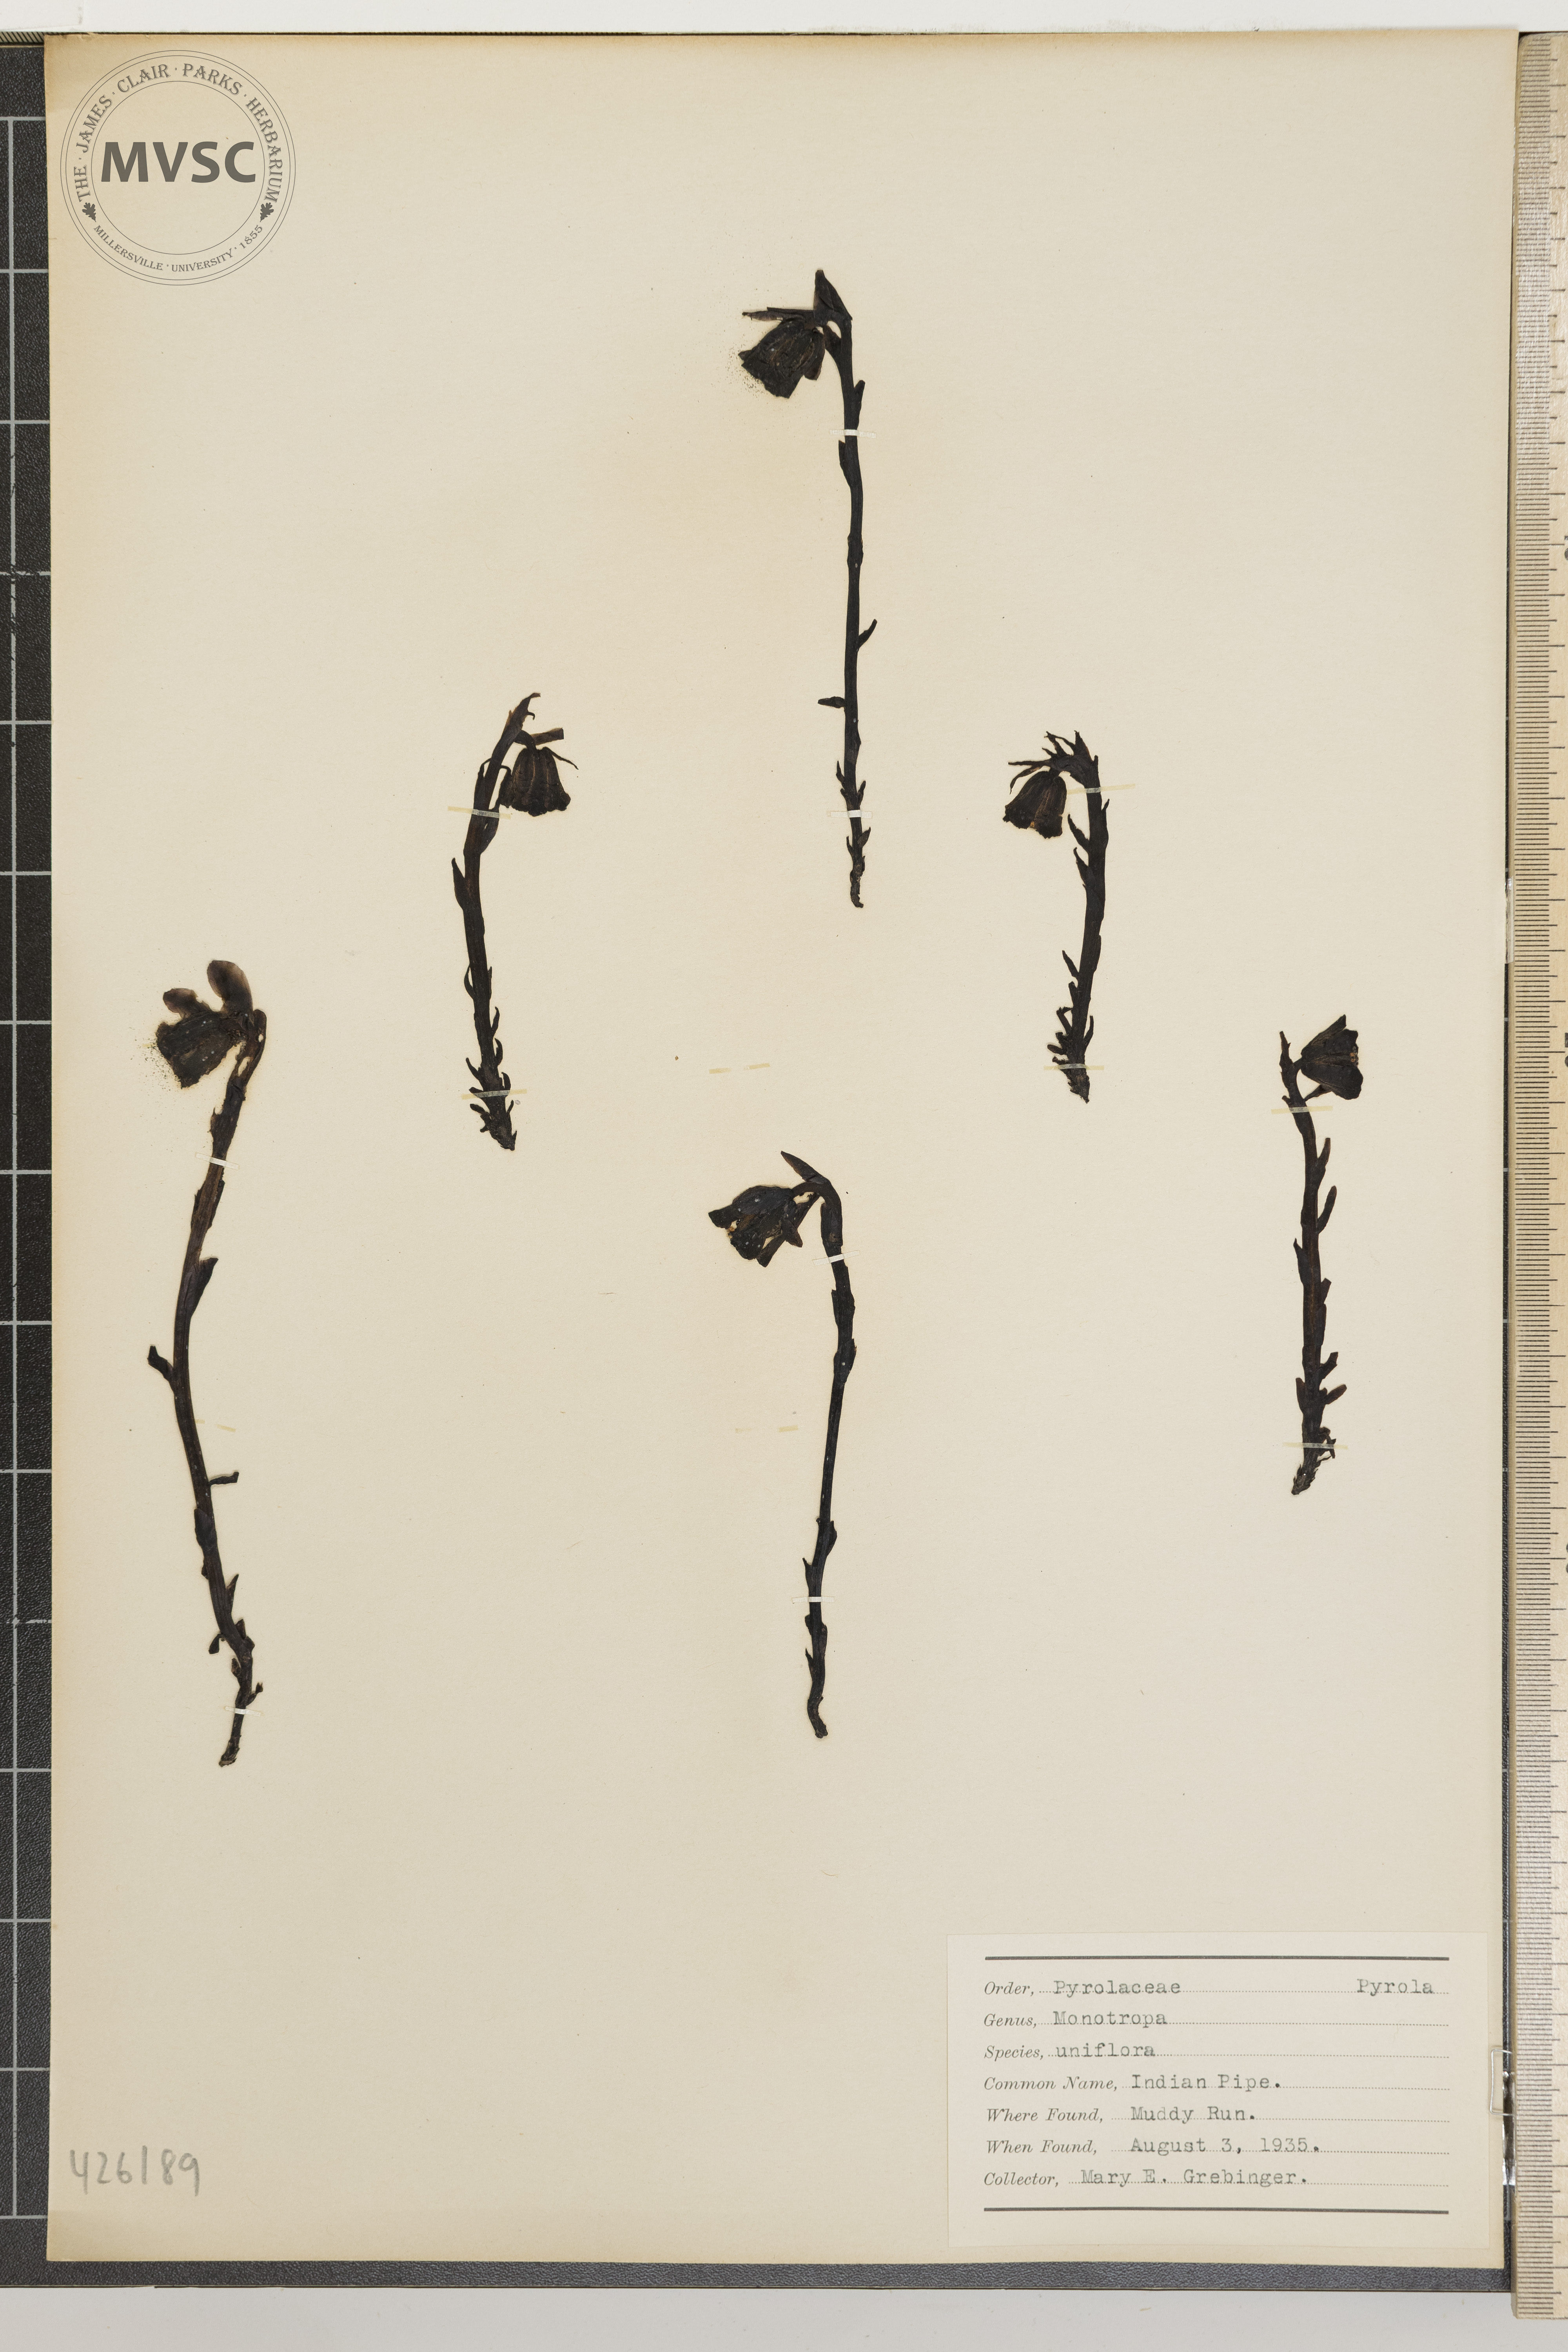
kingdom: Plantae
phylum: Tracheophyta
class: Magnoliopsida
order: Ericales
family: Ericaceae
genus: Monotropa
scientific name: Monotropa uniflora
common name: Indian pipe
